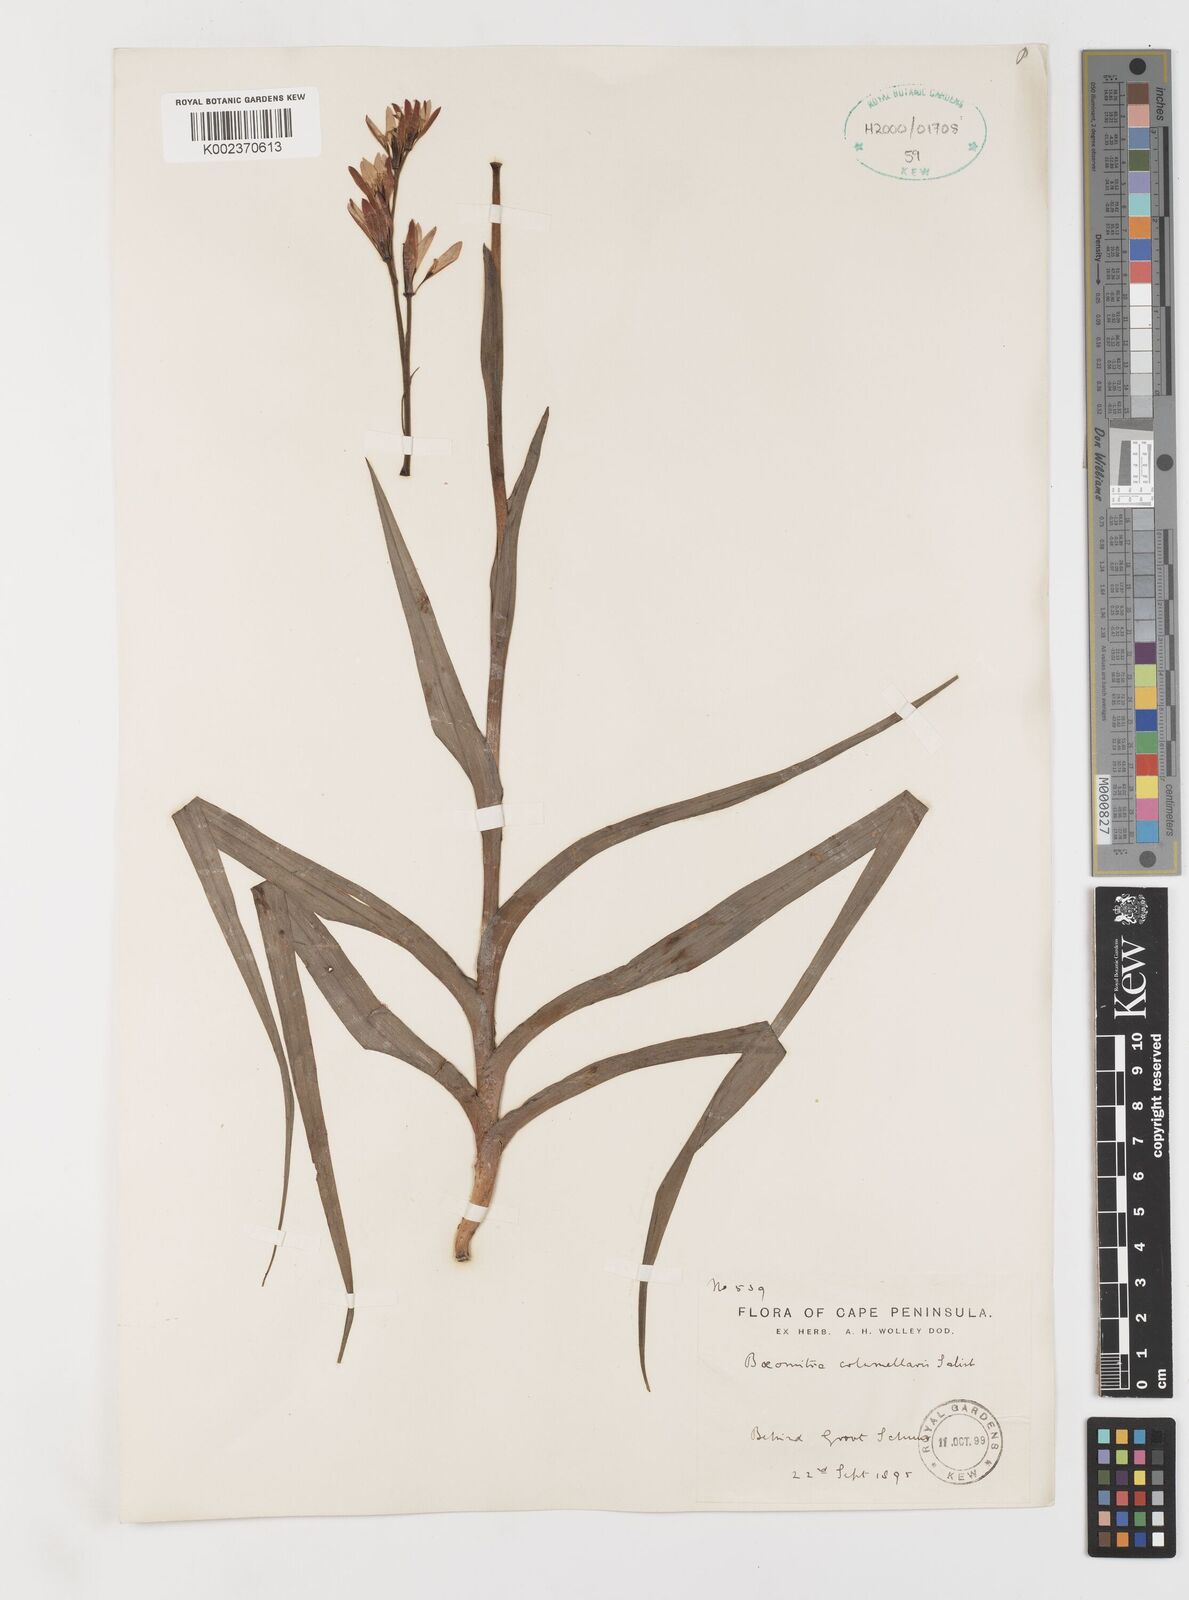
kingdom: Plantae
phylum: Tracheophyta
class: Liliopsida
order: Liliales
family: Colchicaceae
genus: Baeometra
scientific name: Baeometra uniflora
